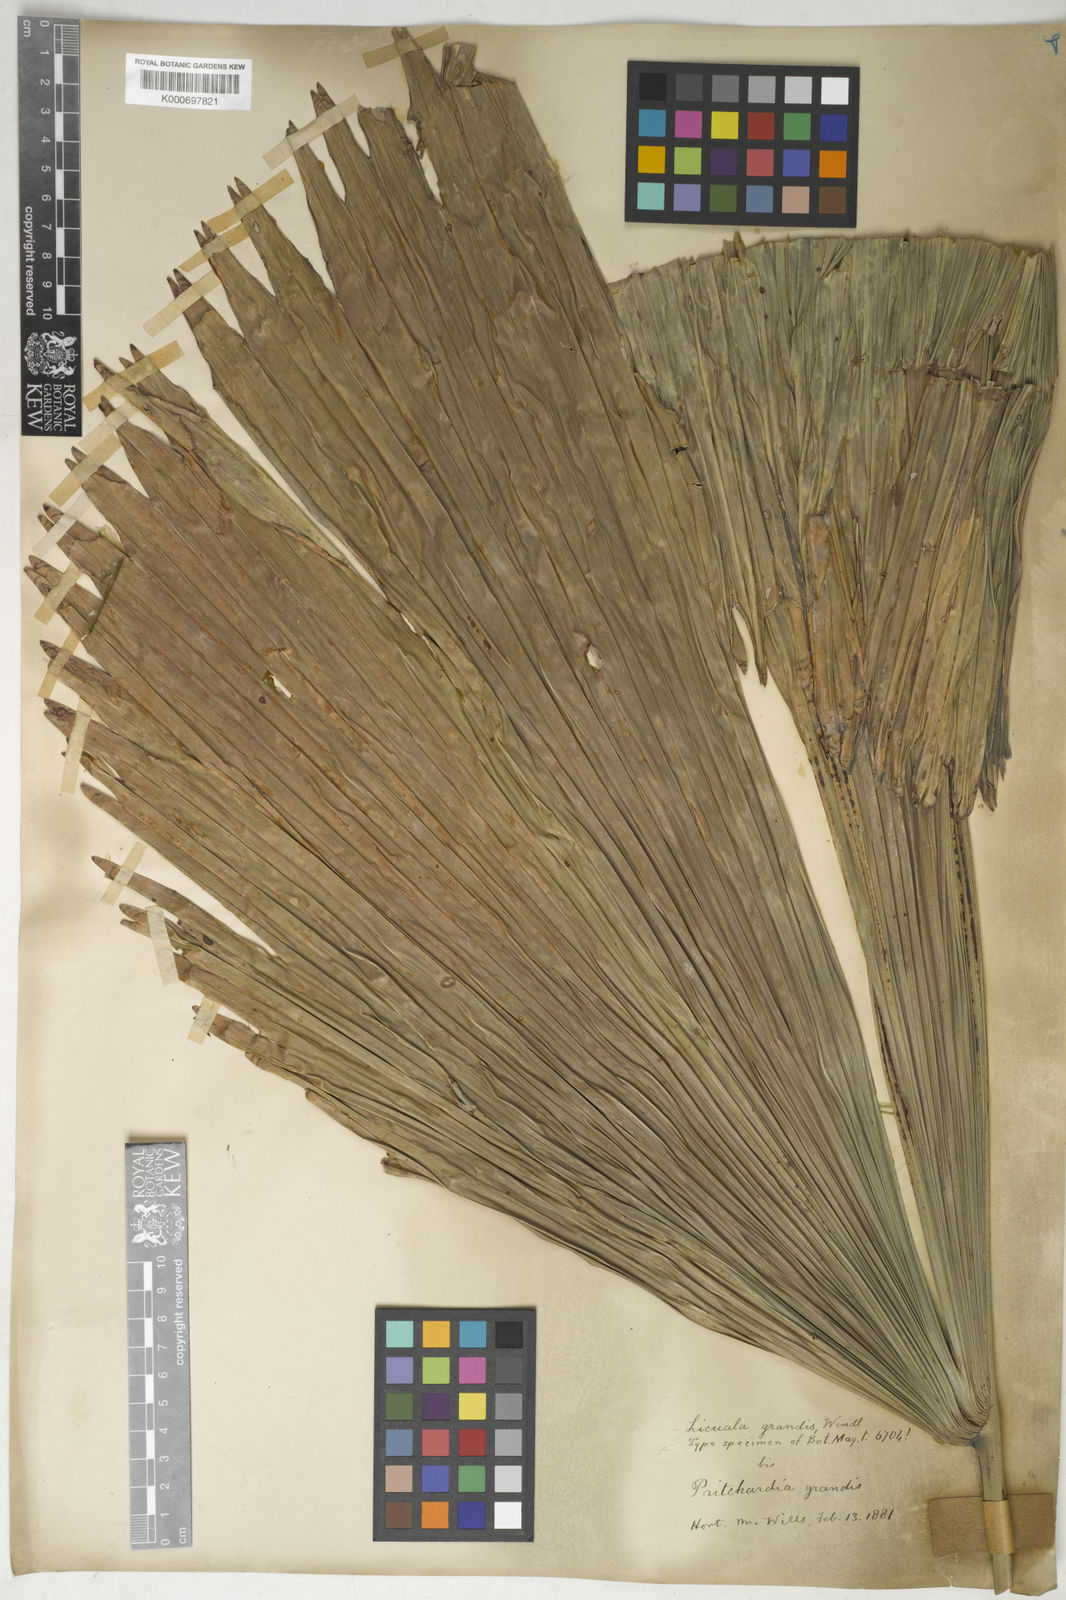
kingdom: Plantae
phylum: Tracheophyta
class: Liliopsida
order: Arecales
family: Arecaceae
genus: Licuala
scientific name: Licuala grandis
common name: Ruffled fan palm
